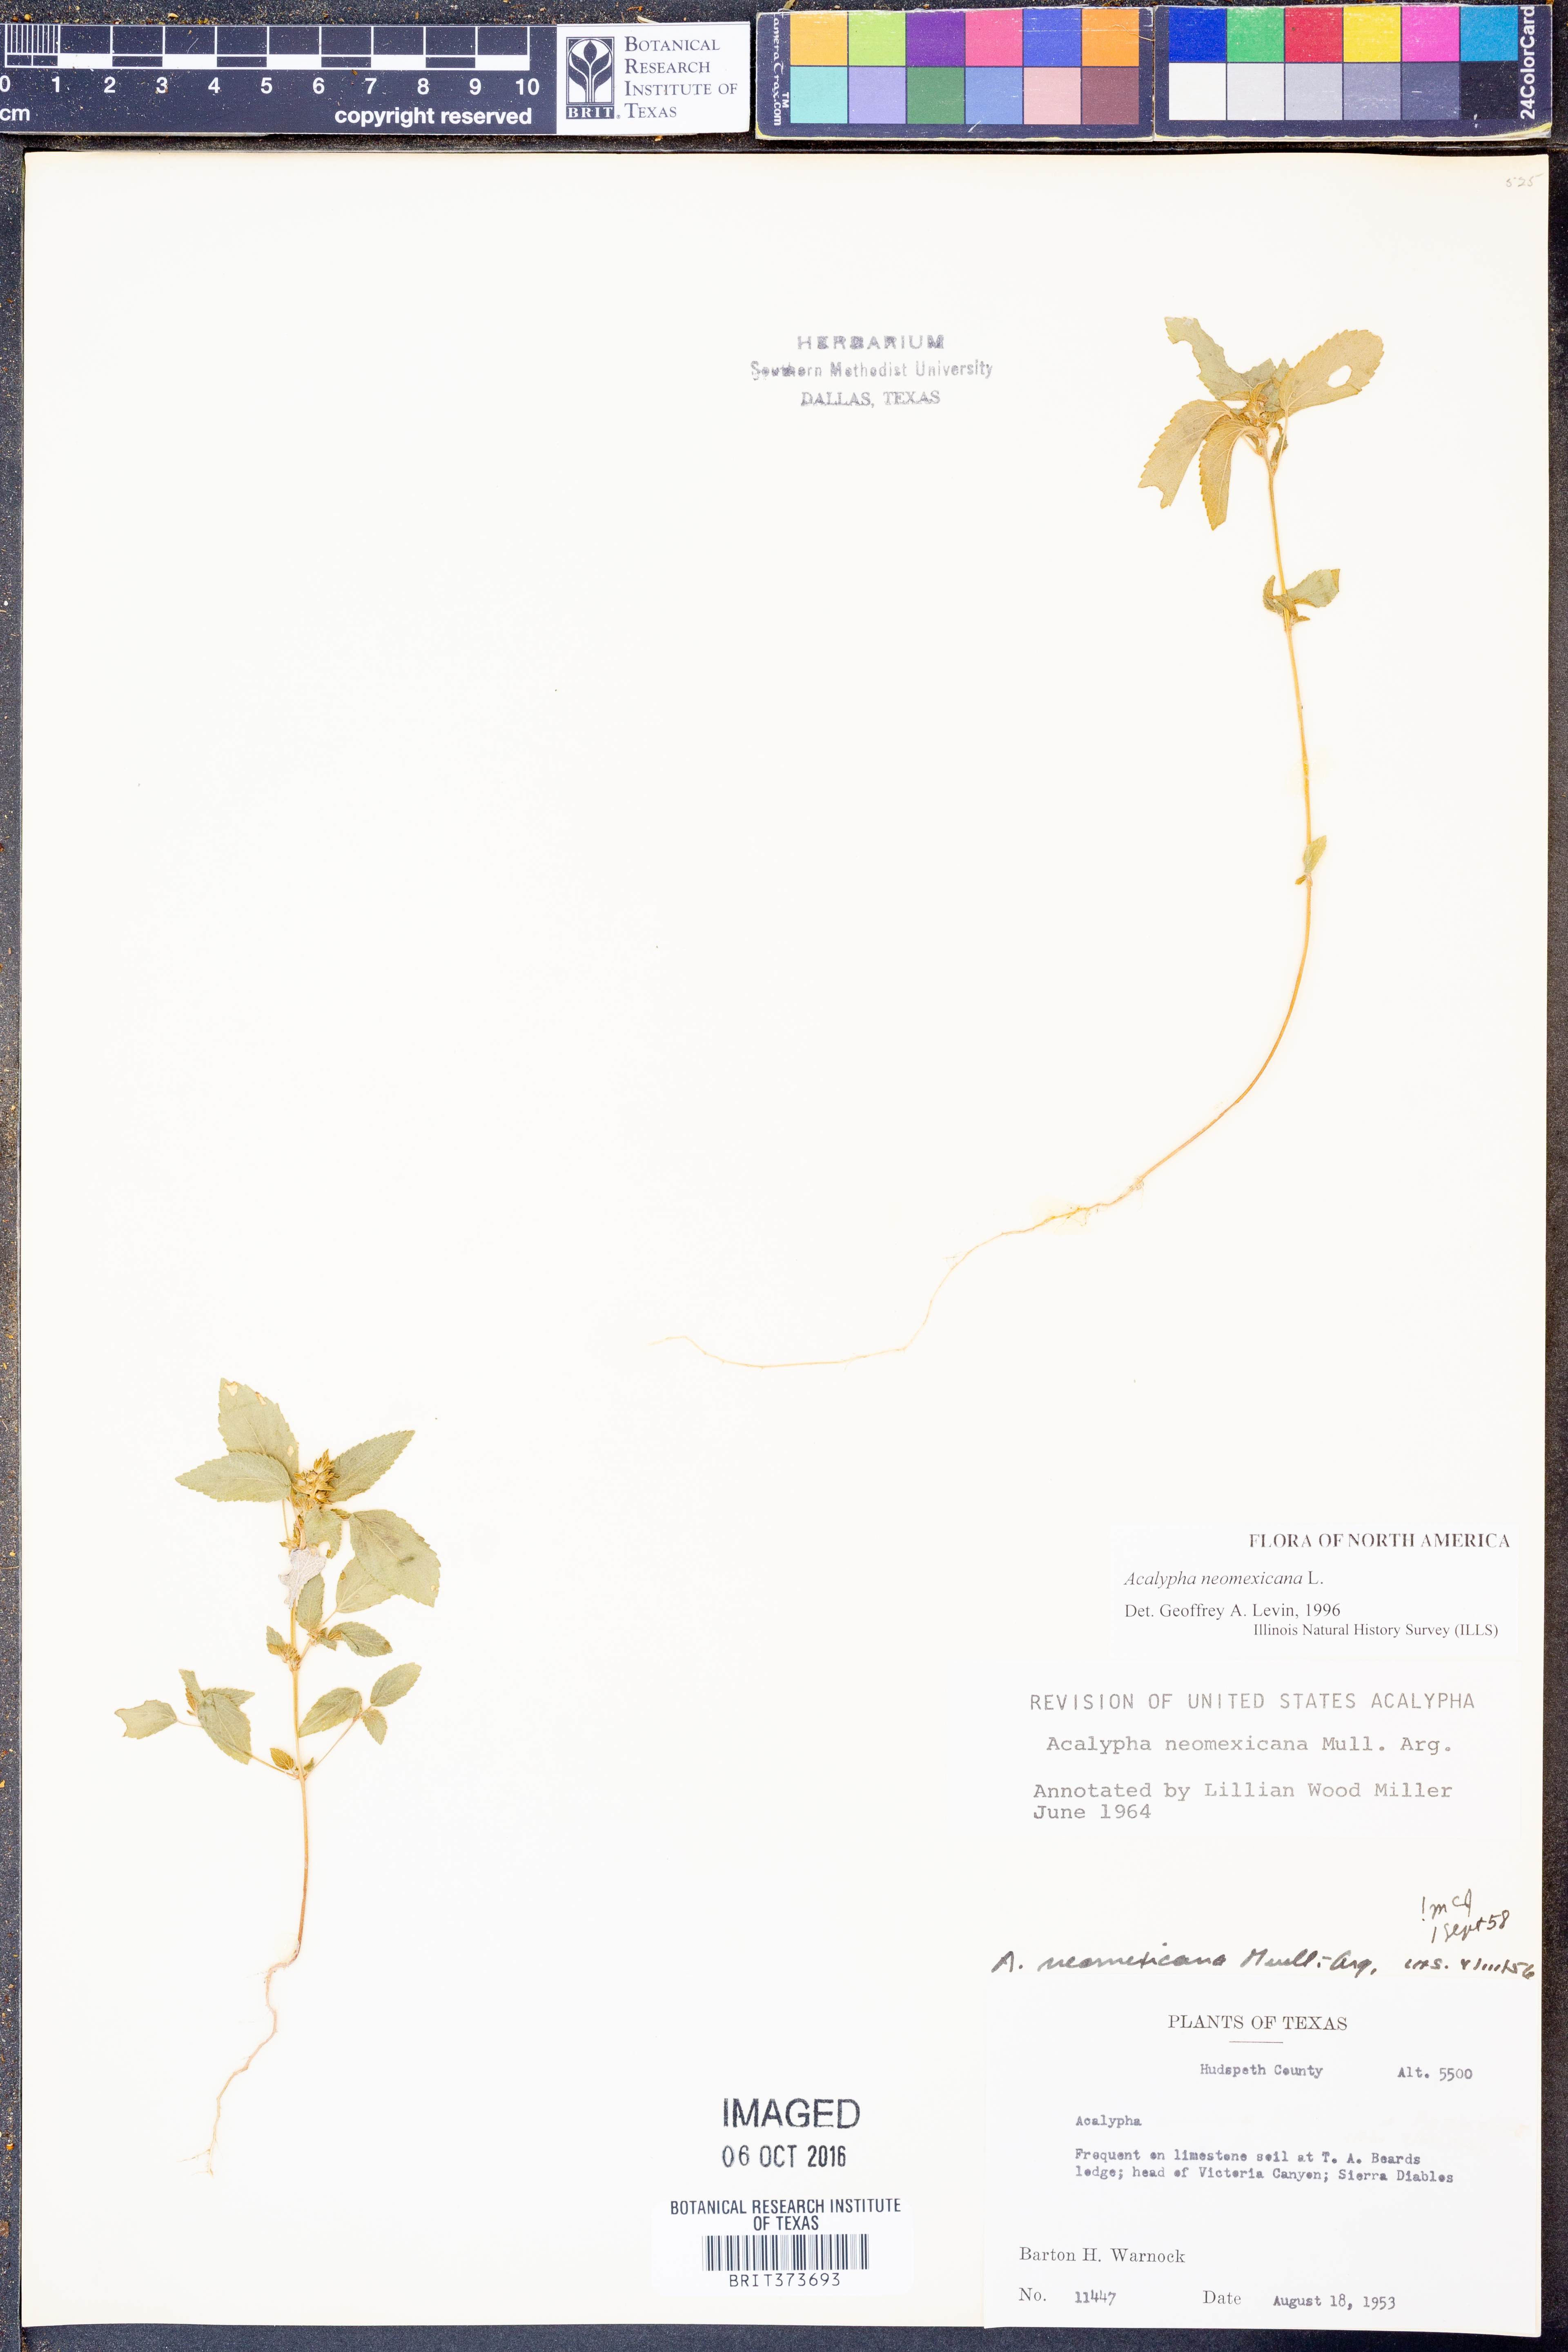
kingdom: Plantae
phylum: Tracheophyta
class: Magnoliopsida
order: Malpighiales
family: Euphorbiaceae
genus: Acalypha
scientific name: Acalypha neomexicana
